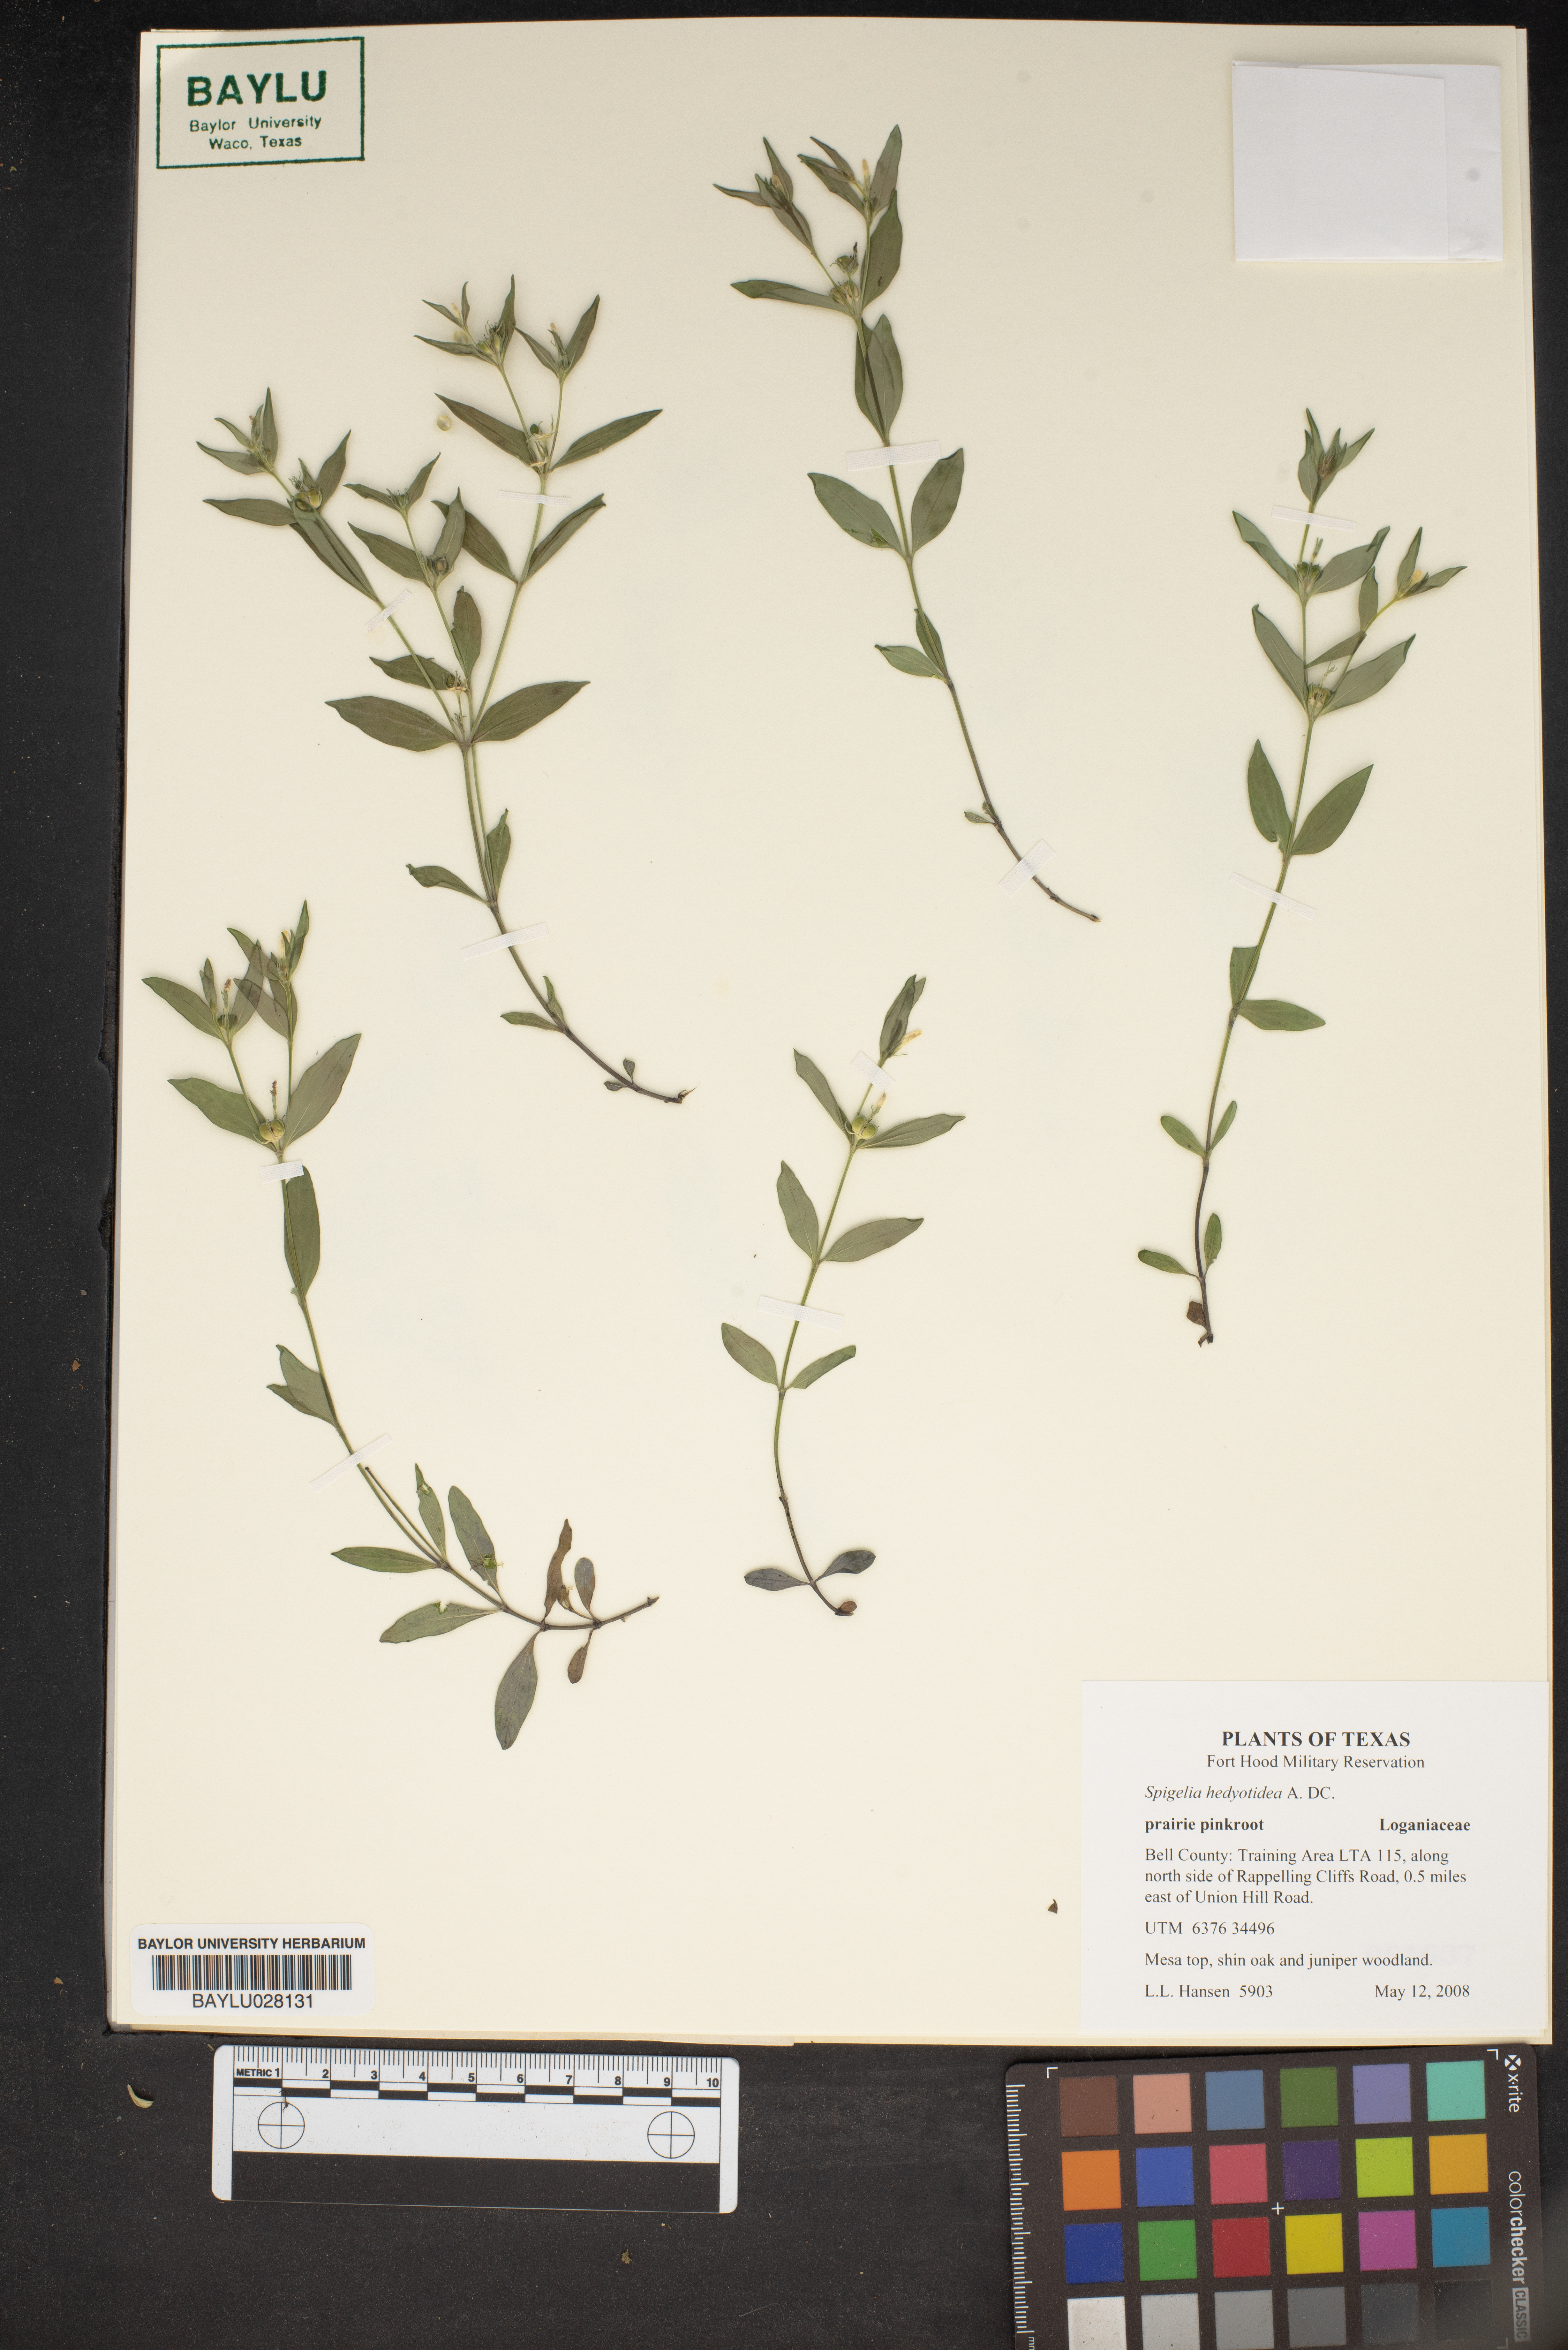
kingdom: Plantae
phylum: Tracheophyta
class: Magnoliopsida
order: Gentianales
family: Loganiaceae
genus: Spigelia
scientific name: Spigelia hedyotidea
